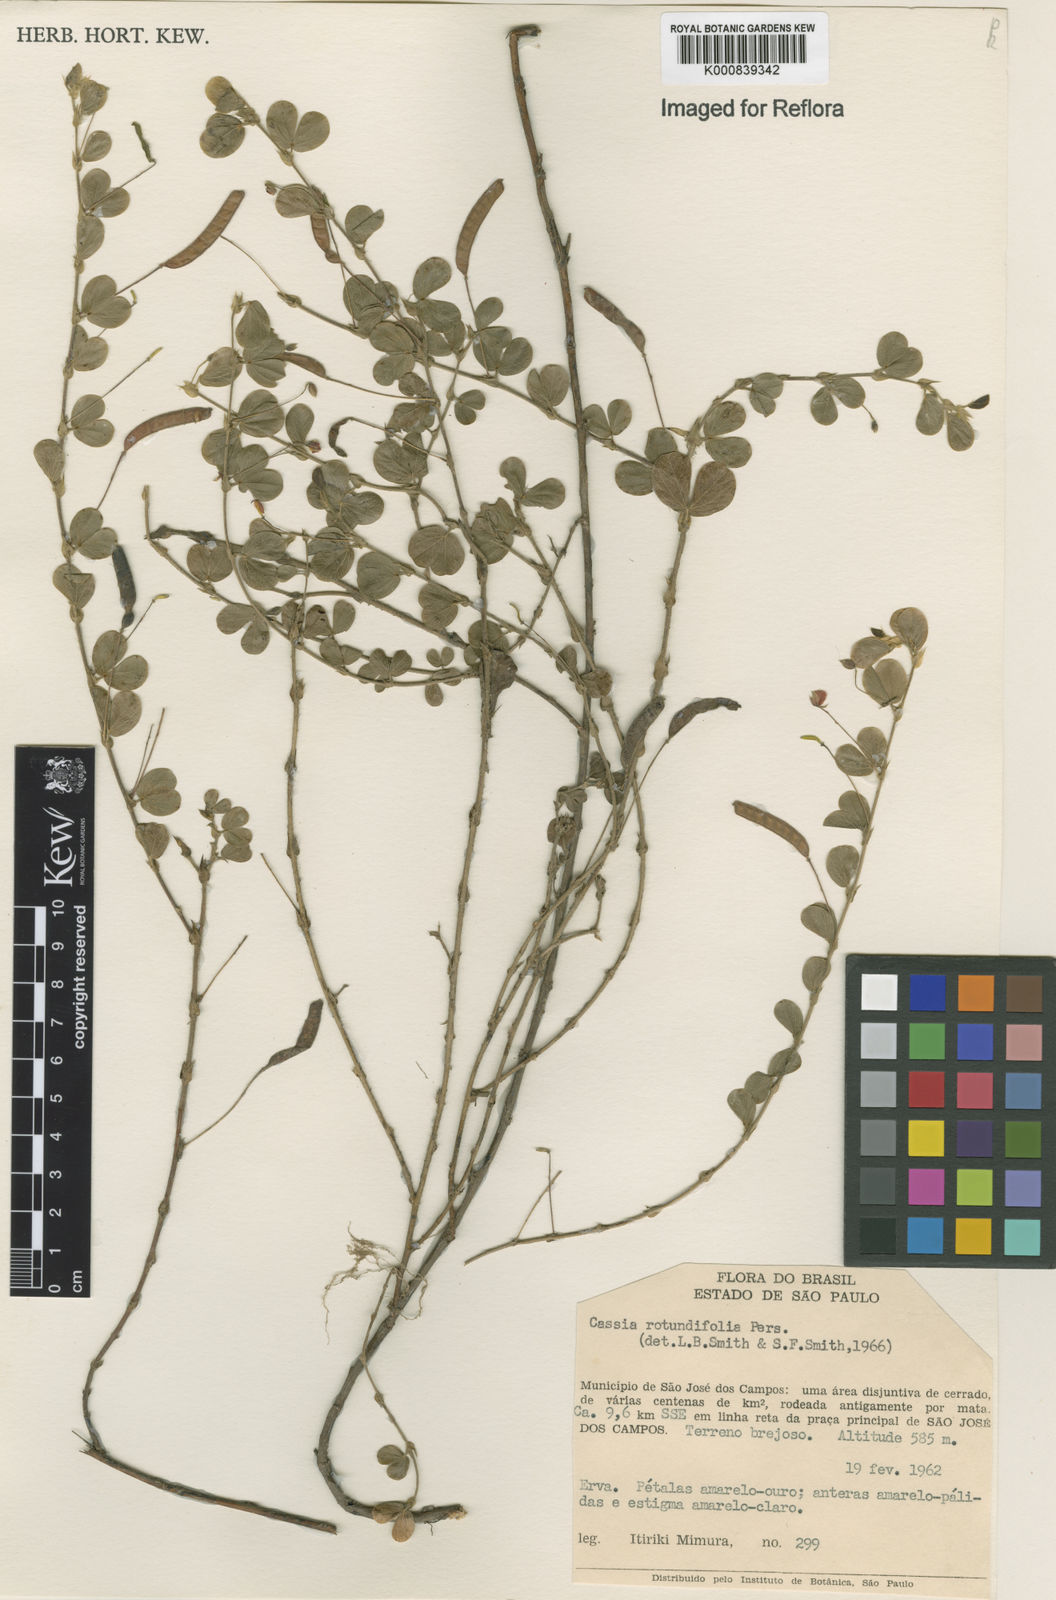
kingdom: Plantae
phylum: Tracheophyta
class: Magnoliopsida
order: Fabales
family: Fabaceae
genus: Chamaecrista
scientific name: Chamaecrista rotundifolia
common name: Round-leaf cassia
